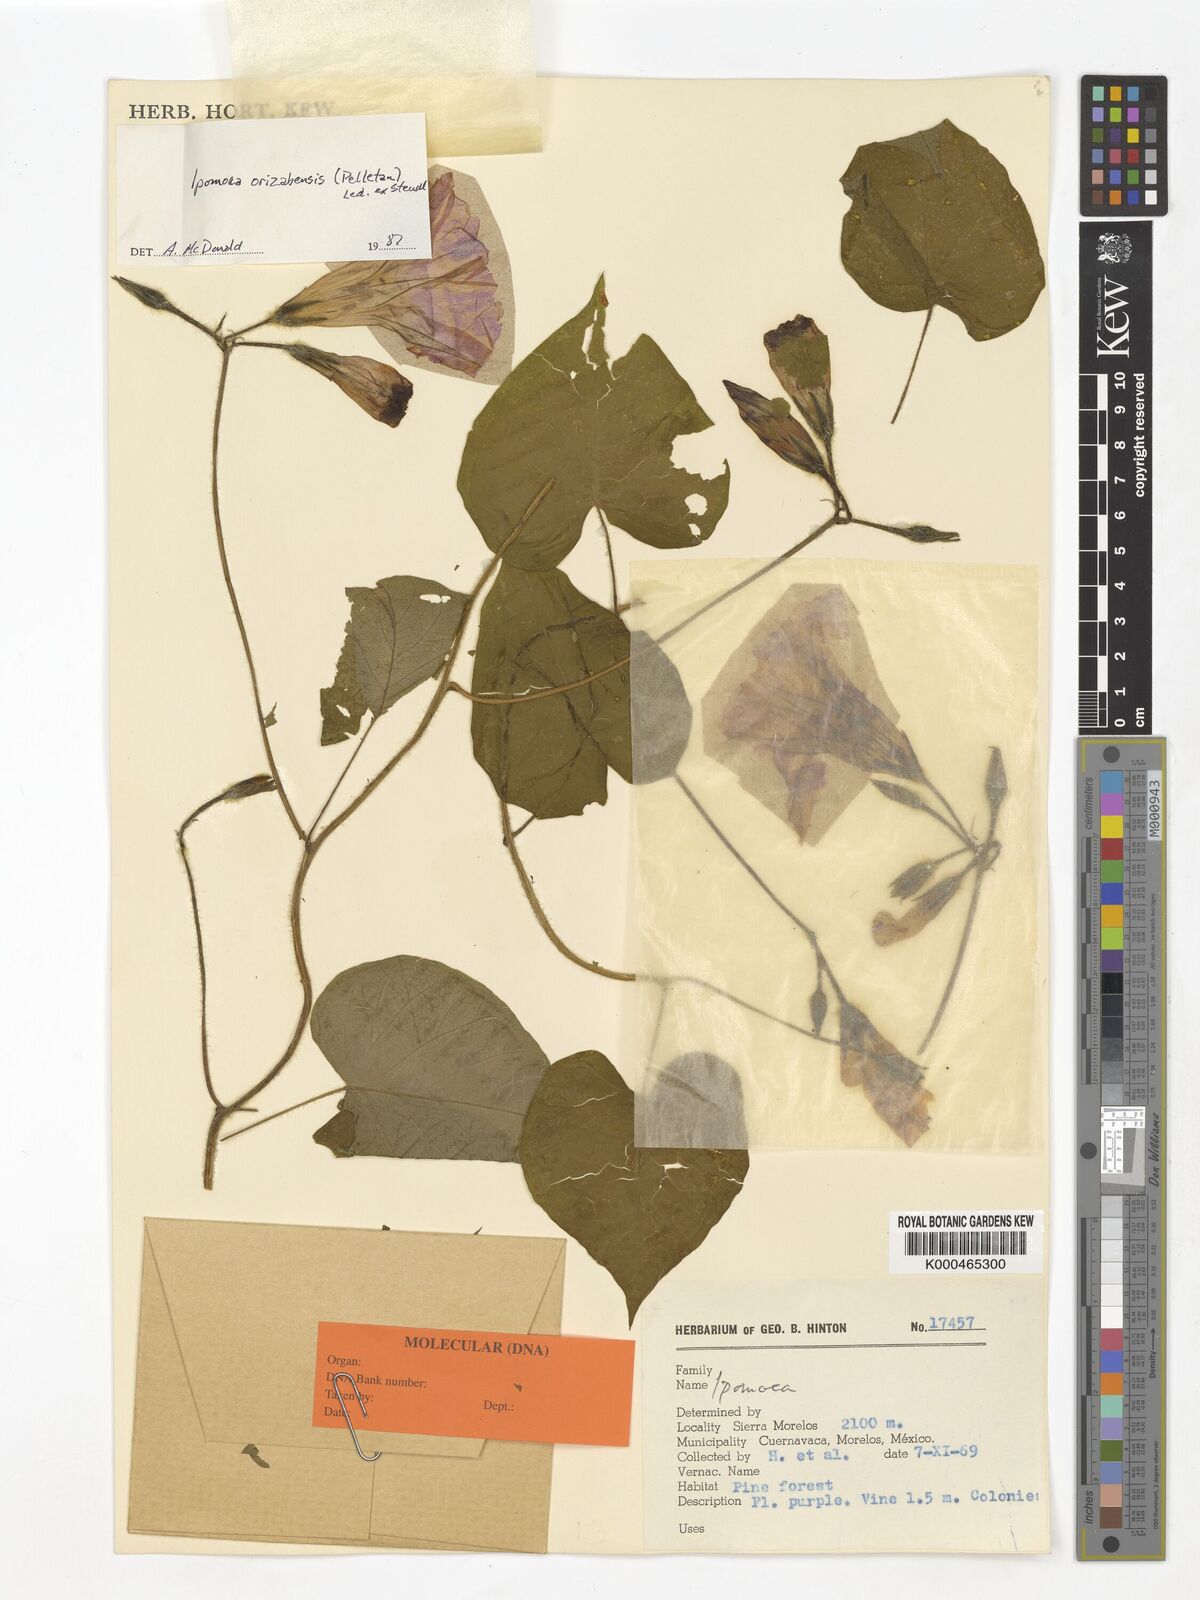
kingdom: Plantae
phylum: Tracheophyta
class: Magnoliopsida
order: Solanales
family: Convolvulaceae
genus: Ipomoea
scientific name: Ipomoea orizabensis
